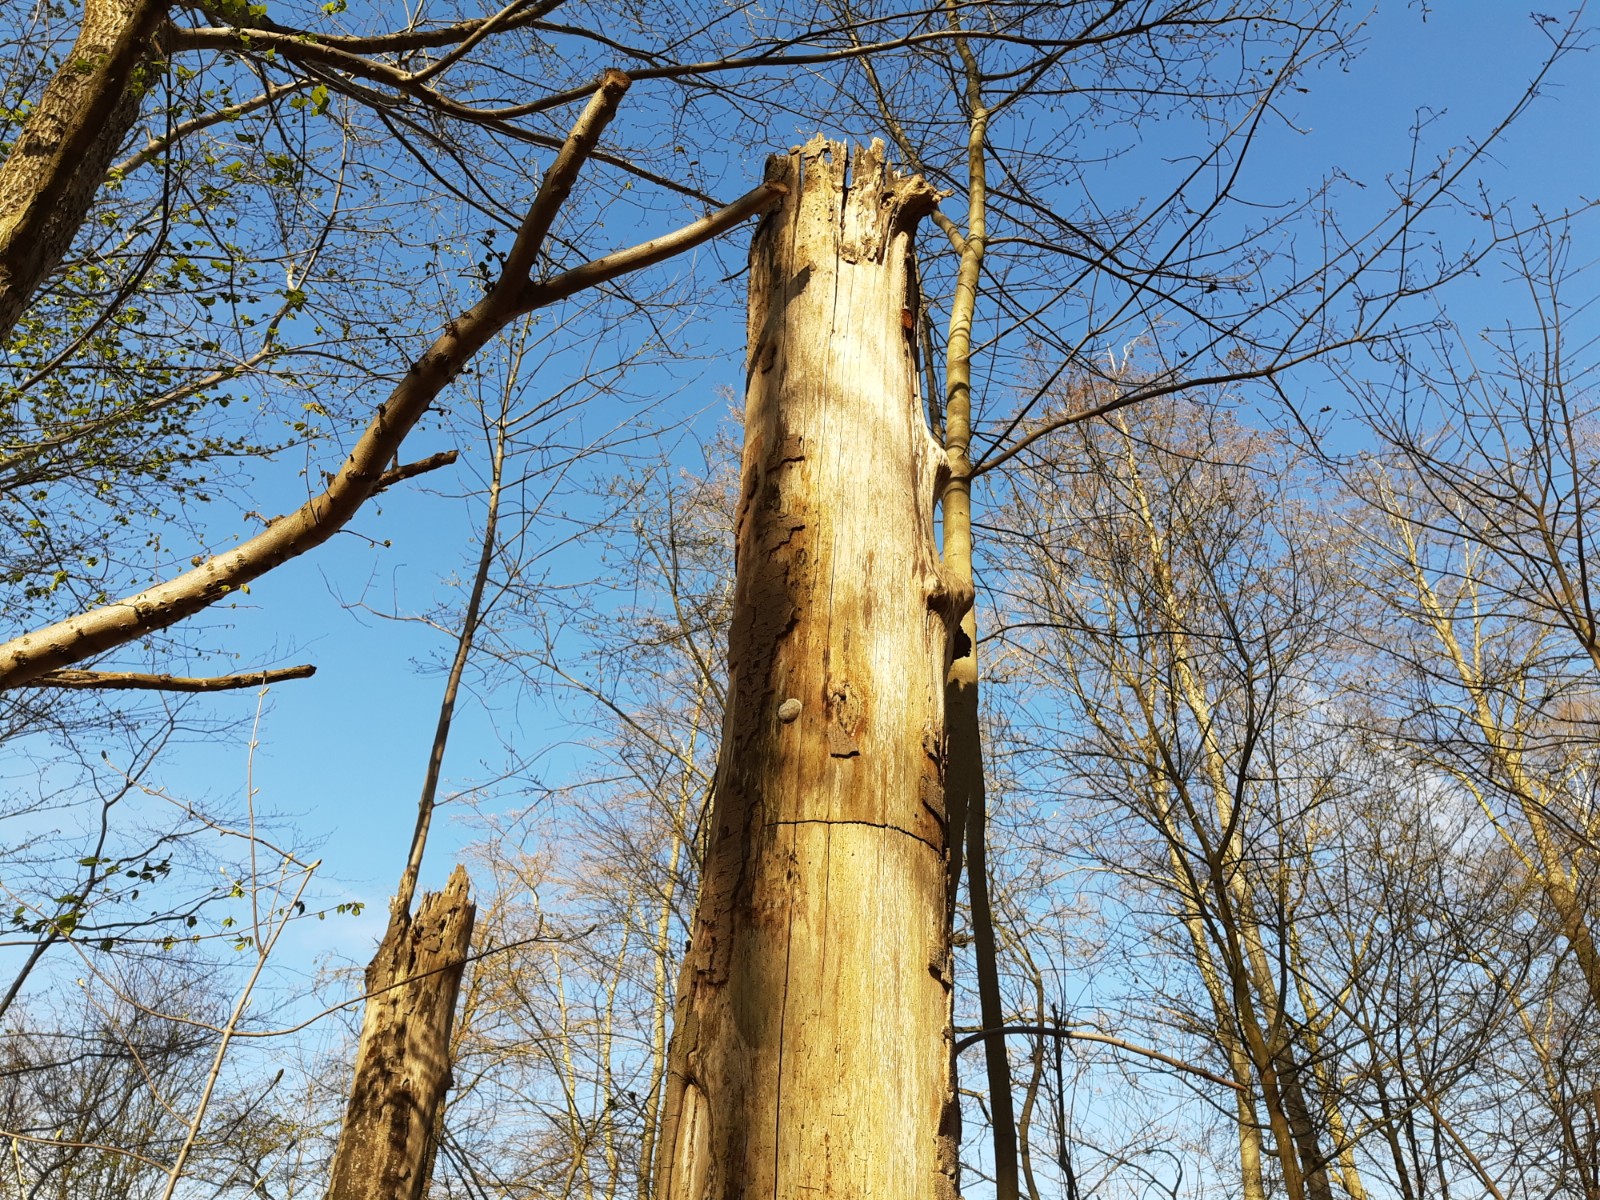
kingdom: Protozoa
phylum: Mycetozoa
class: Myxomycetes
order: Cribrariales
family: Tubiferaceae
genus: Reticularia
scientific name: Reticularia lycoperdon
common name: skinnende støvpude
